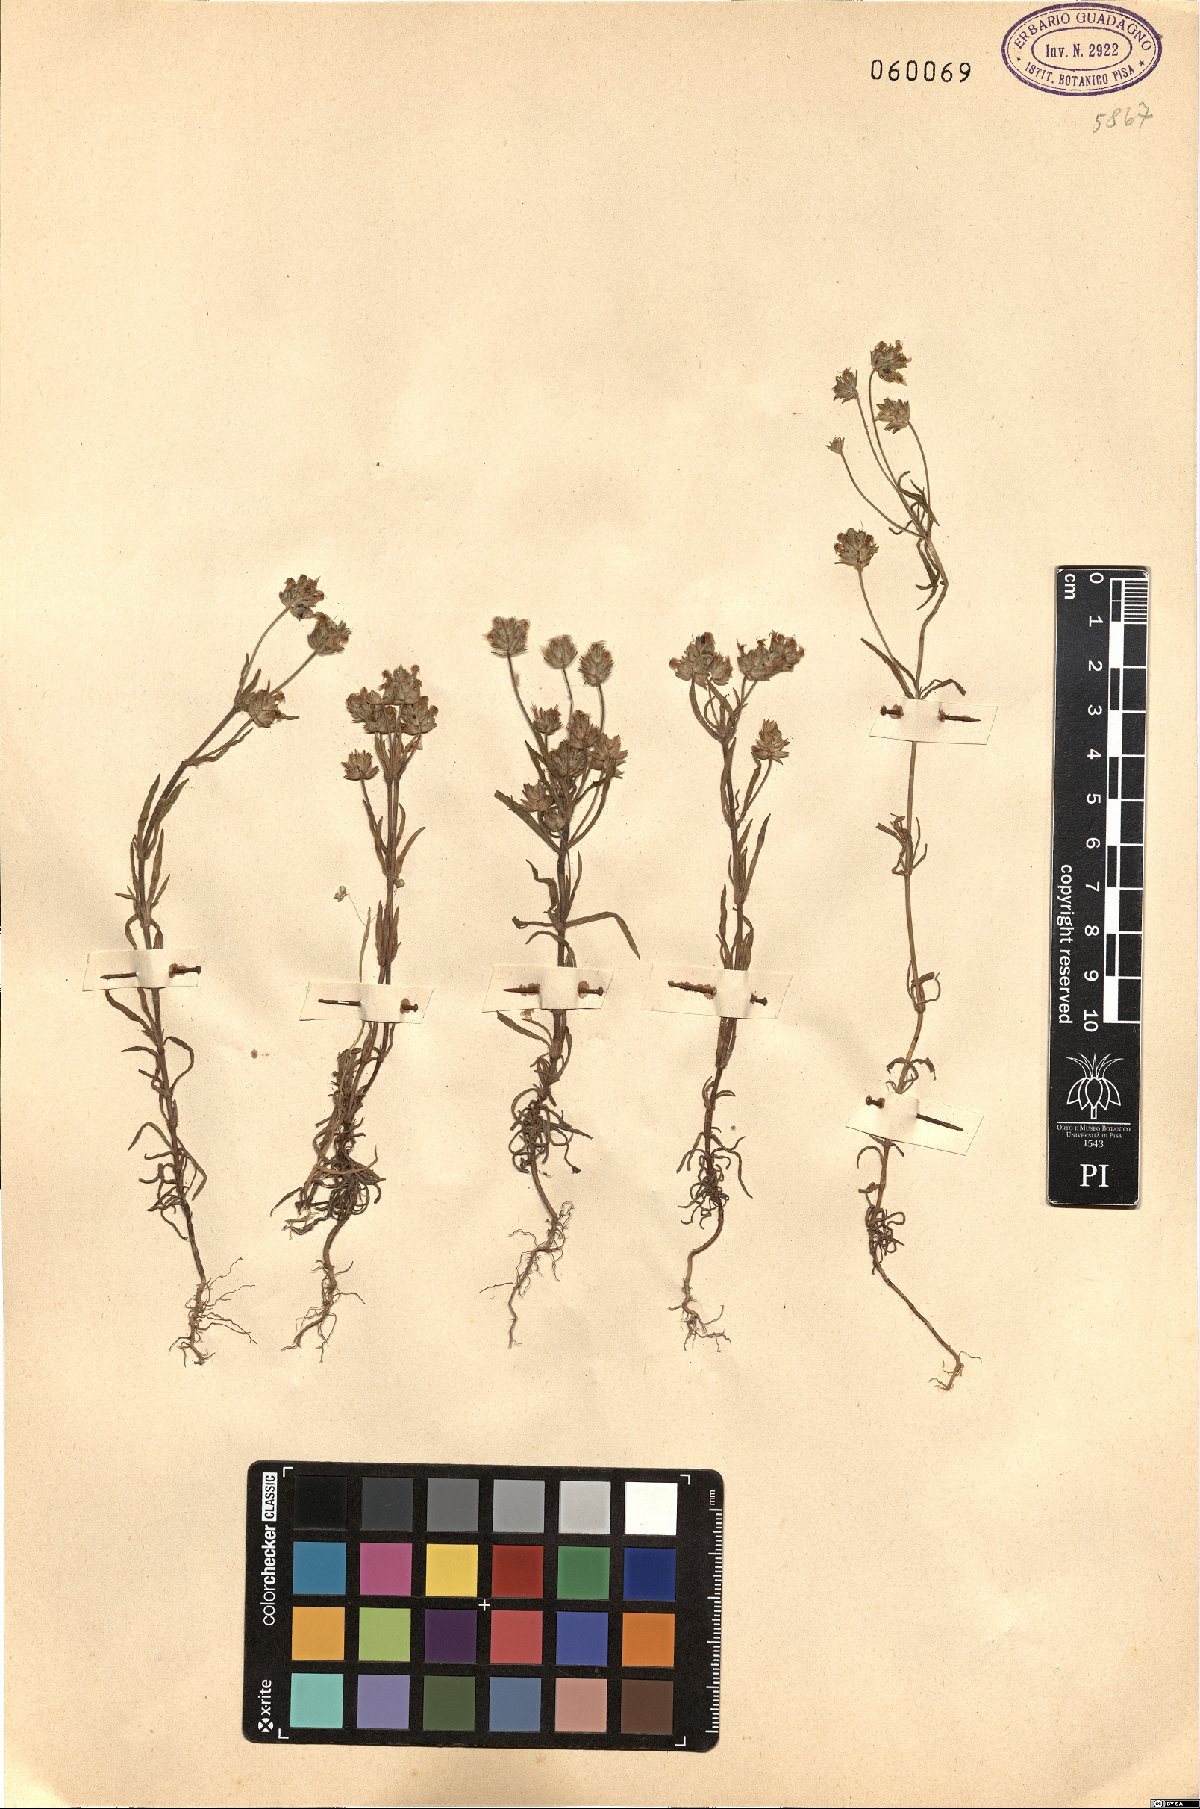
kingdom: Plantae
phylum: Tracheophyta
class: Magnoliopsida
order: Lamiales
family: Plantaginaceae
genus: Plantago
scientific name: Plantago afra
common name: Glandular plantain
